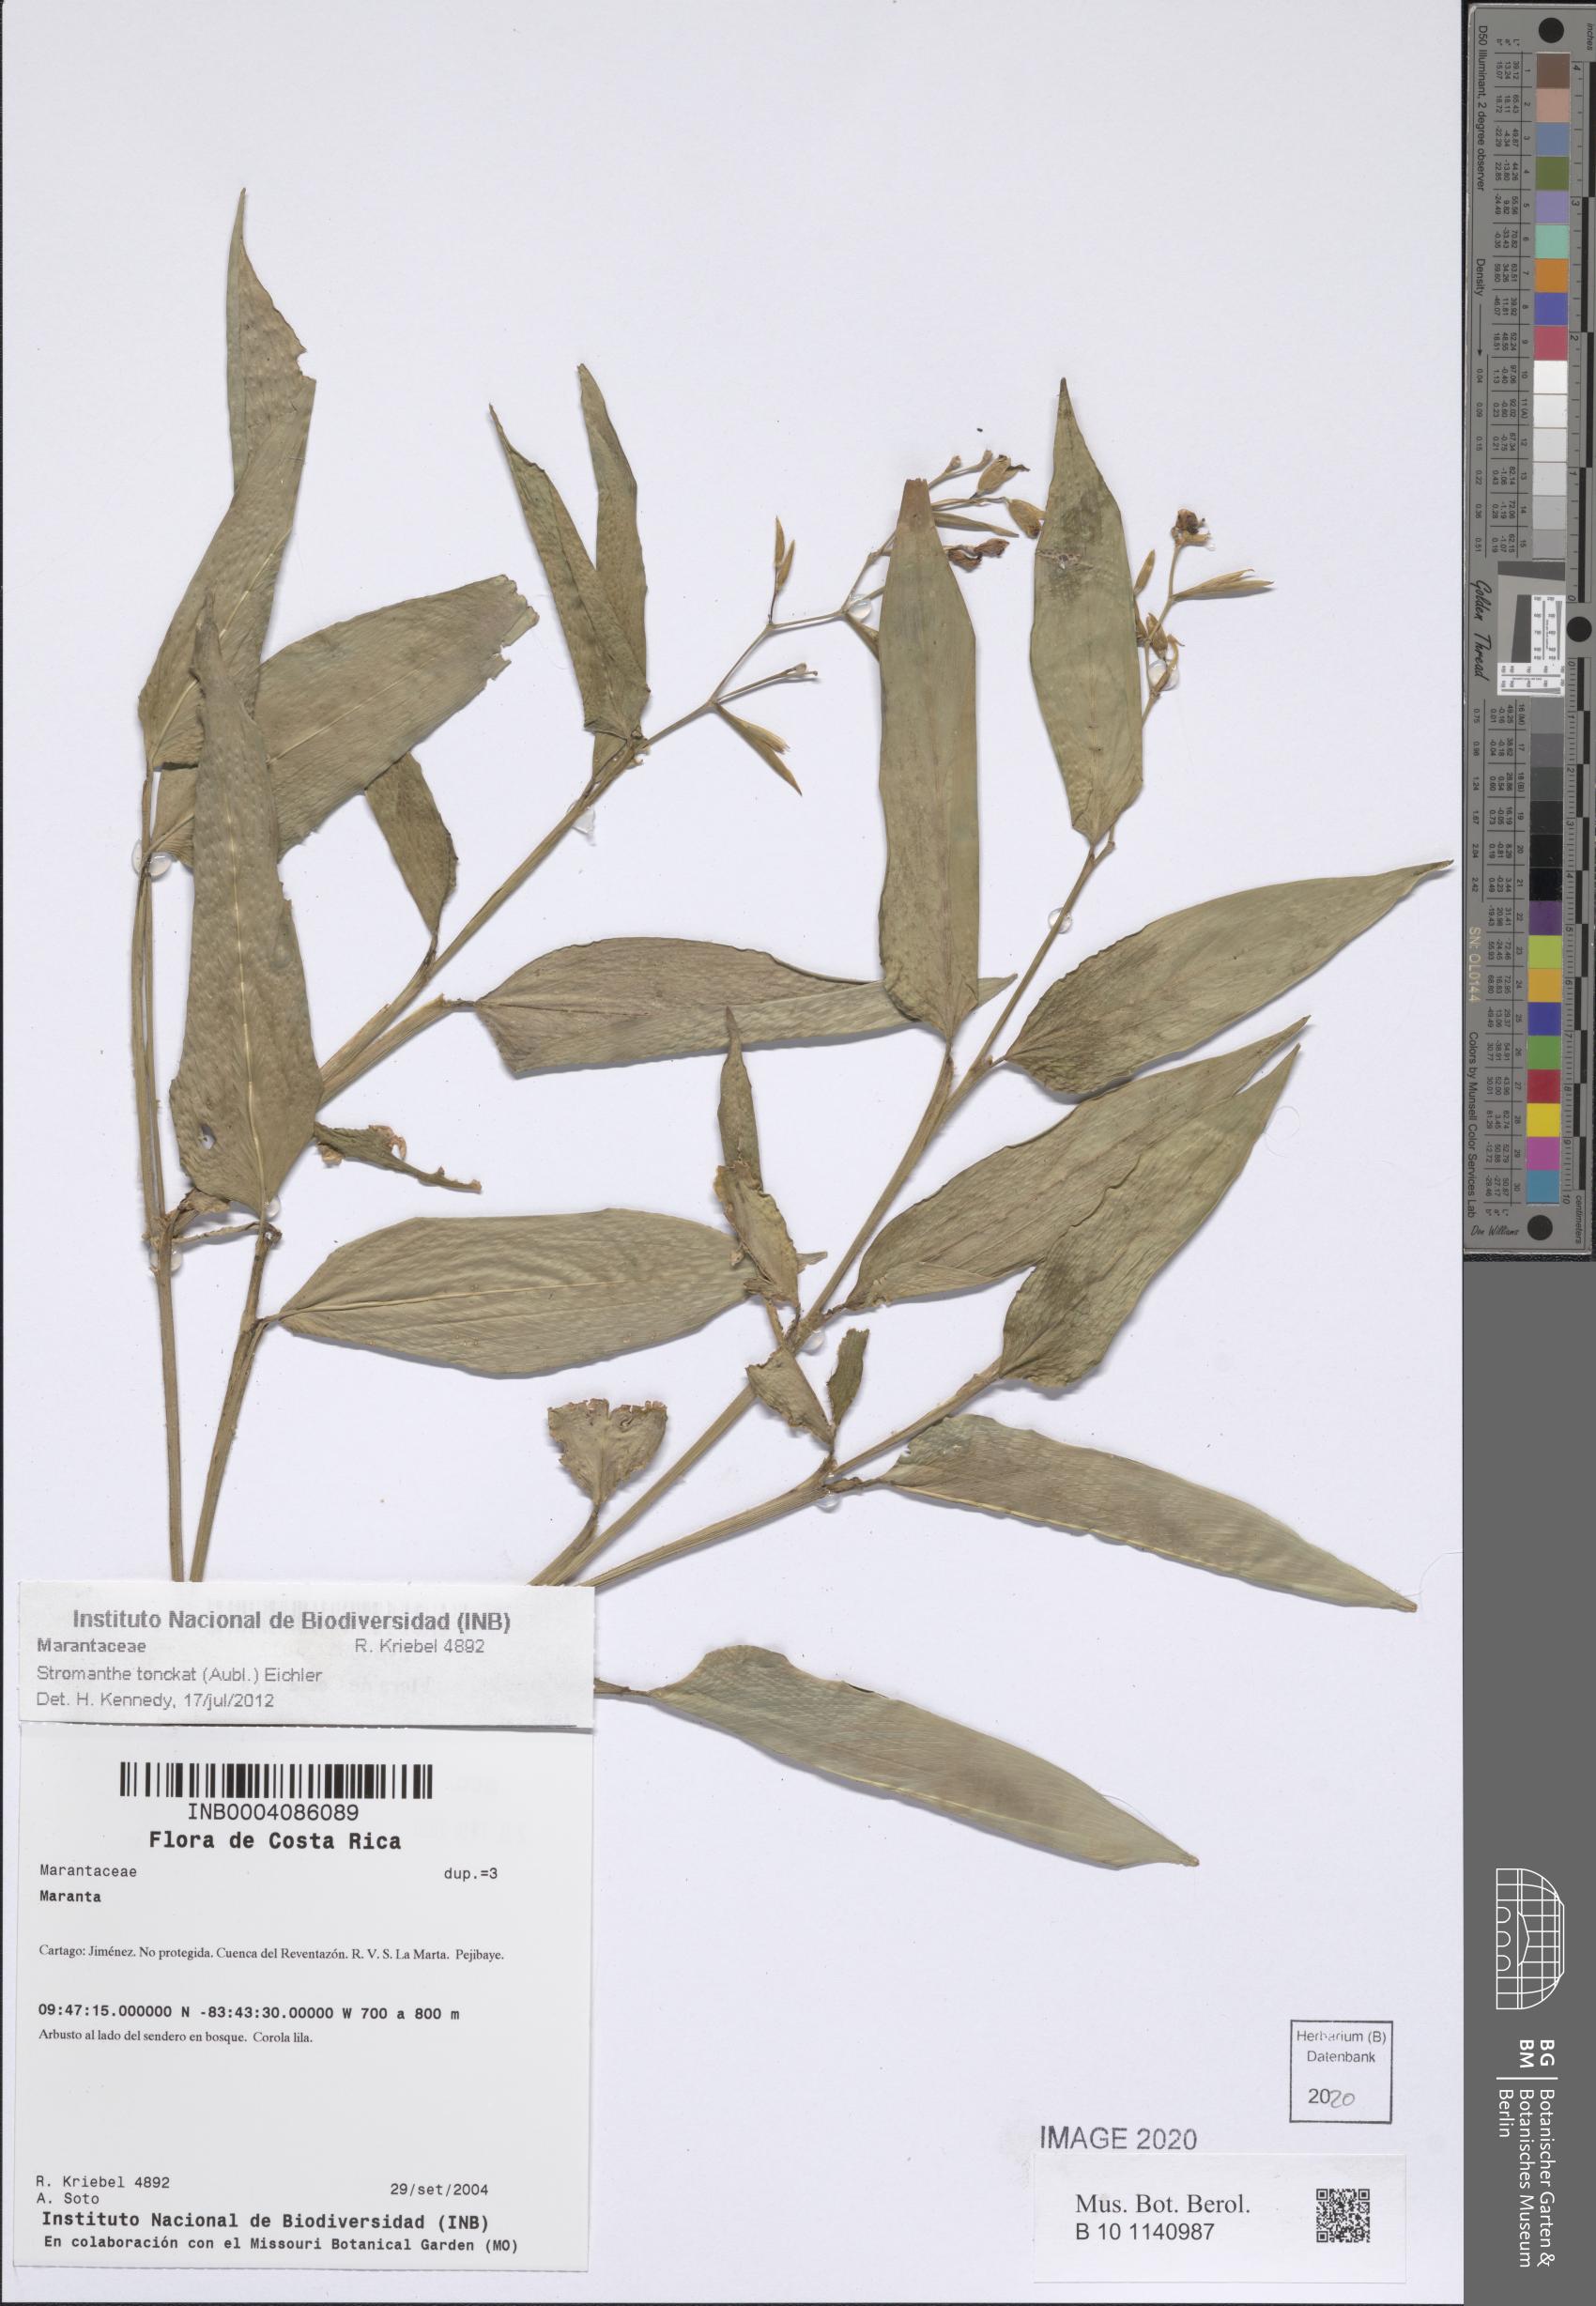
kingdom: Plantae
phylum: Tracheophyta
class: Liliopsida
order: Zingiberales
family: Marantaceae
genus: Stromanthe
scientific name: Stromanthe tonckat
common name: Stromanthe
